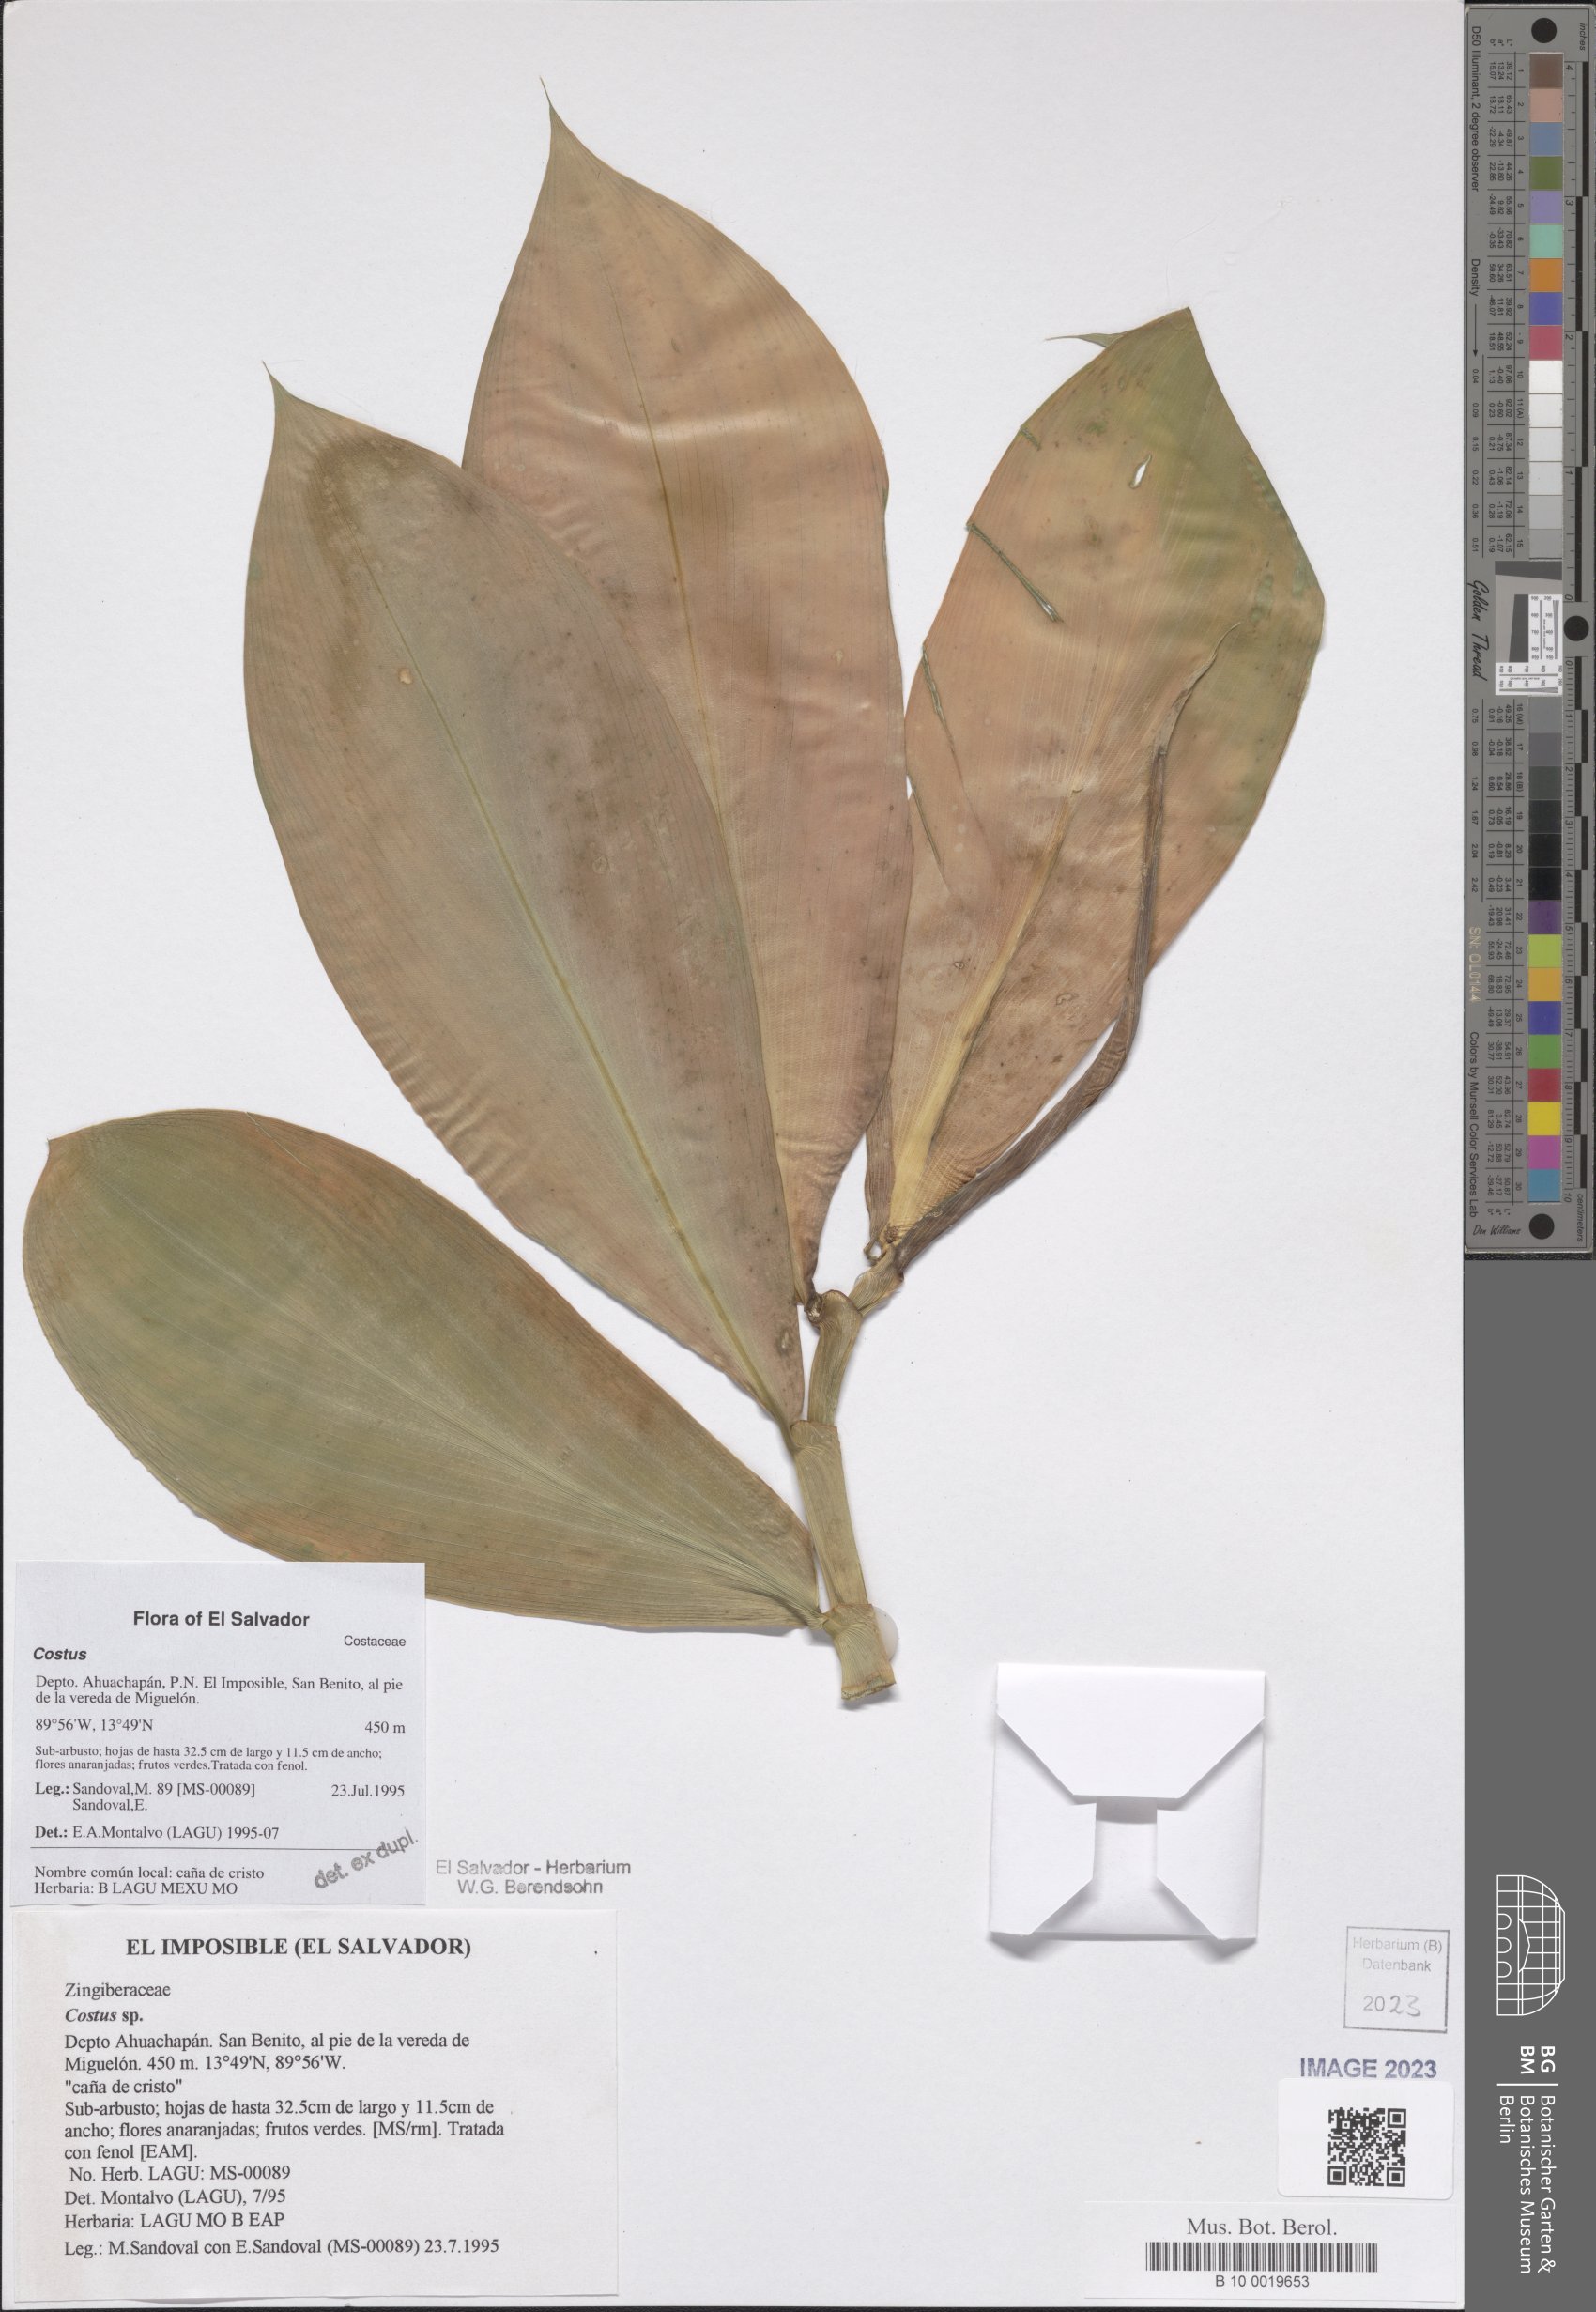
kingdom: Plantae
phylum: Tracheophyta
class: Liliopsida
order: Zingiberales
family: Costaceae
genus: Costus
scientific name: Costus
